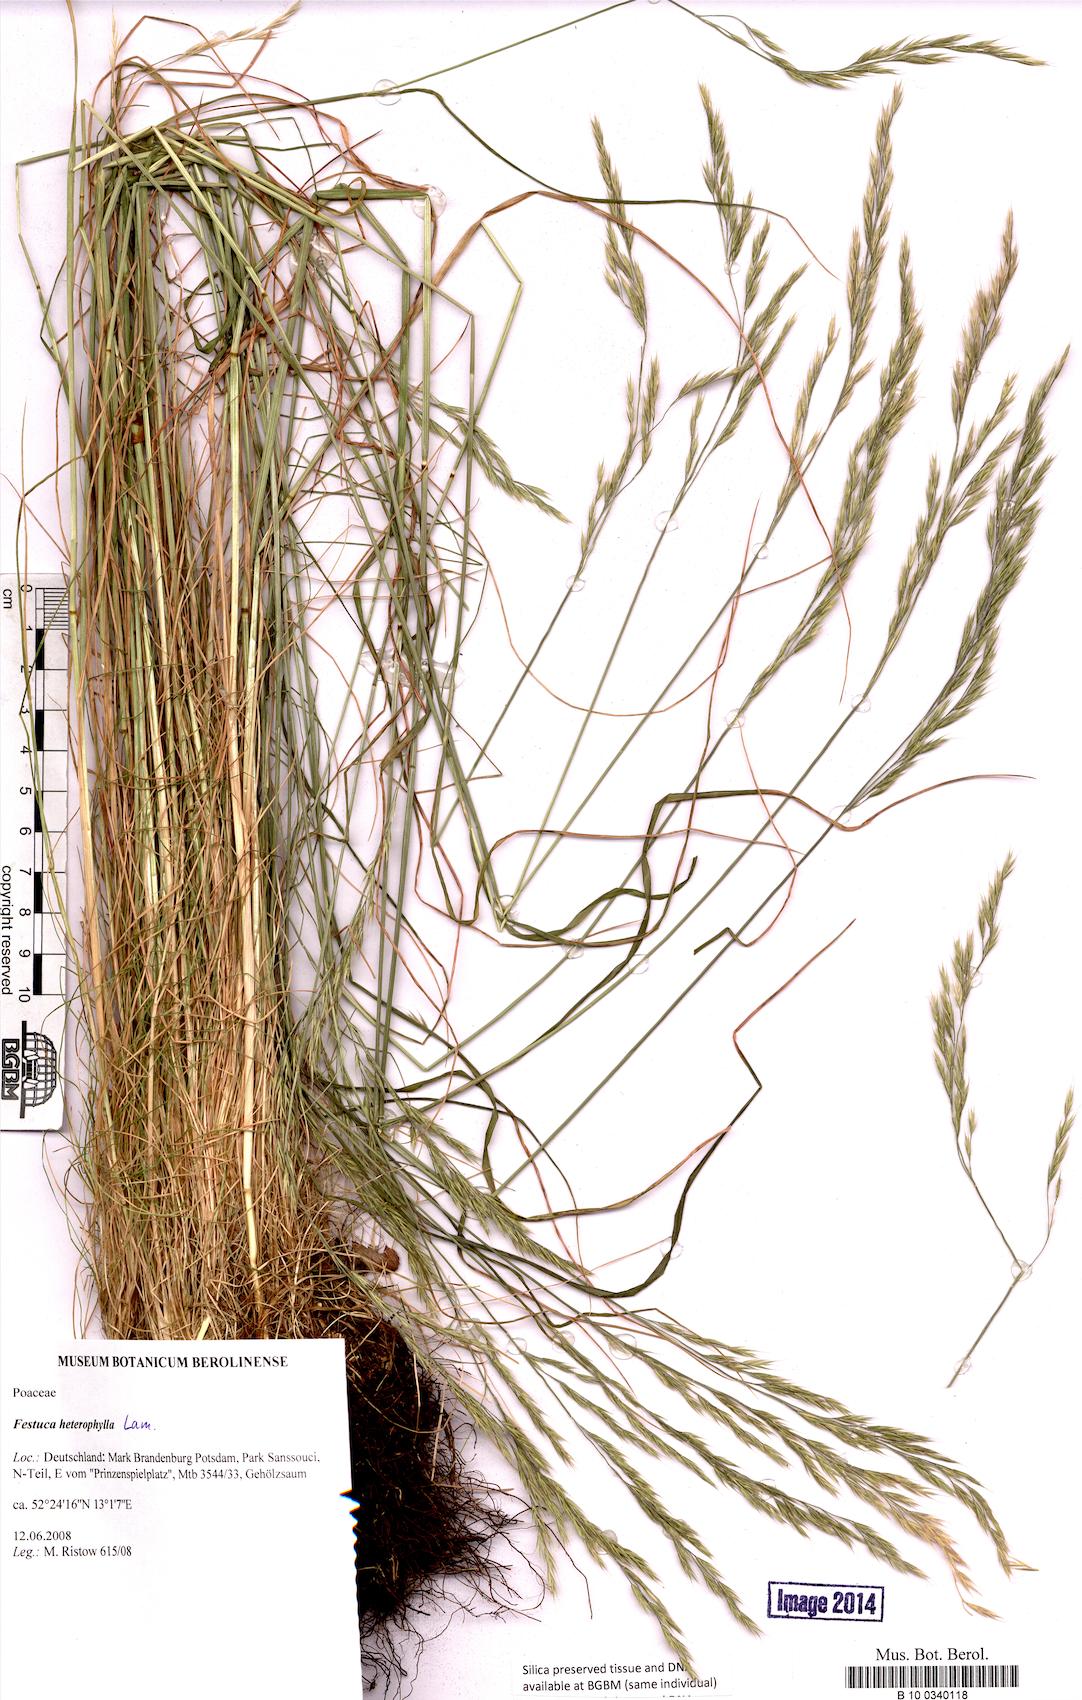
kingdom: Plantae
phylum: Tracheophyta
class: Liliopsida
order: Poales
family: Poaceae
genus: Festuca
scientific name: Festuca heterophylla
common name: Various-leaved fescue
